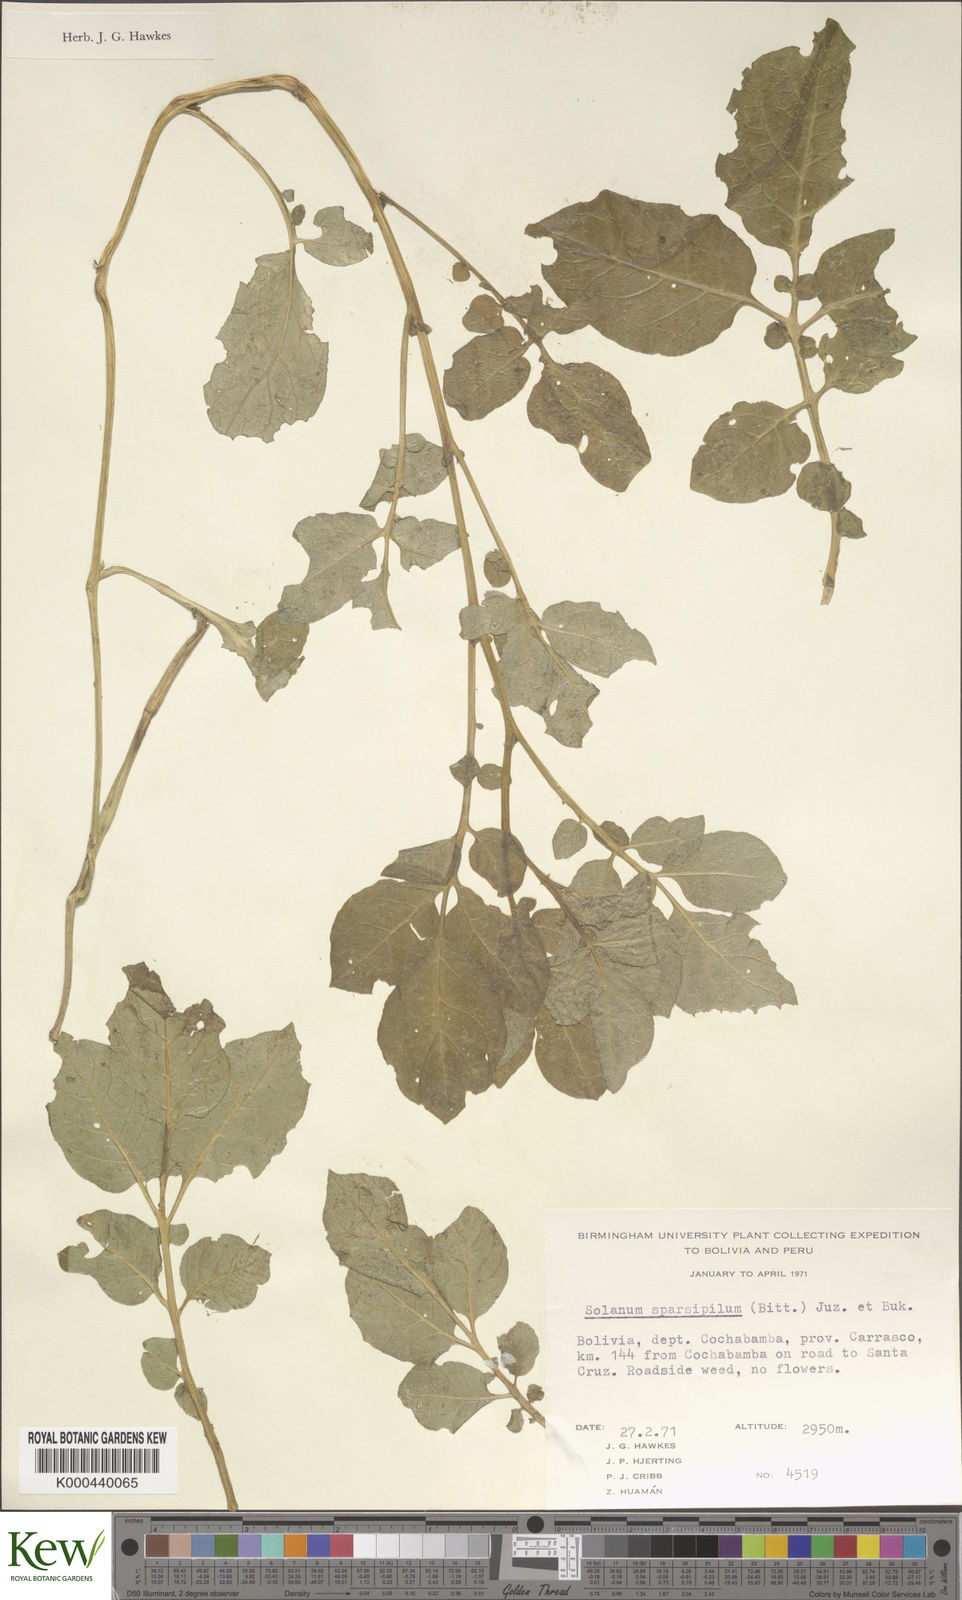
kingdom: Plantae
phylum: Tracheophyta
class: Magnoliopsida
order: Solanales
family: Solanaceae
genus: Solanum
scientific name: Solanum brevicaule
